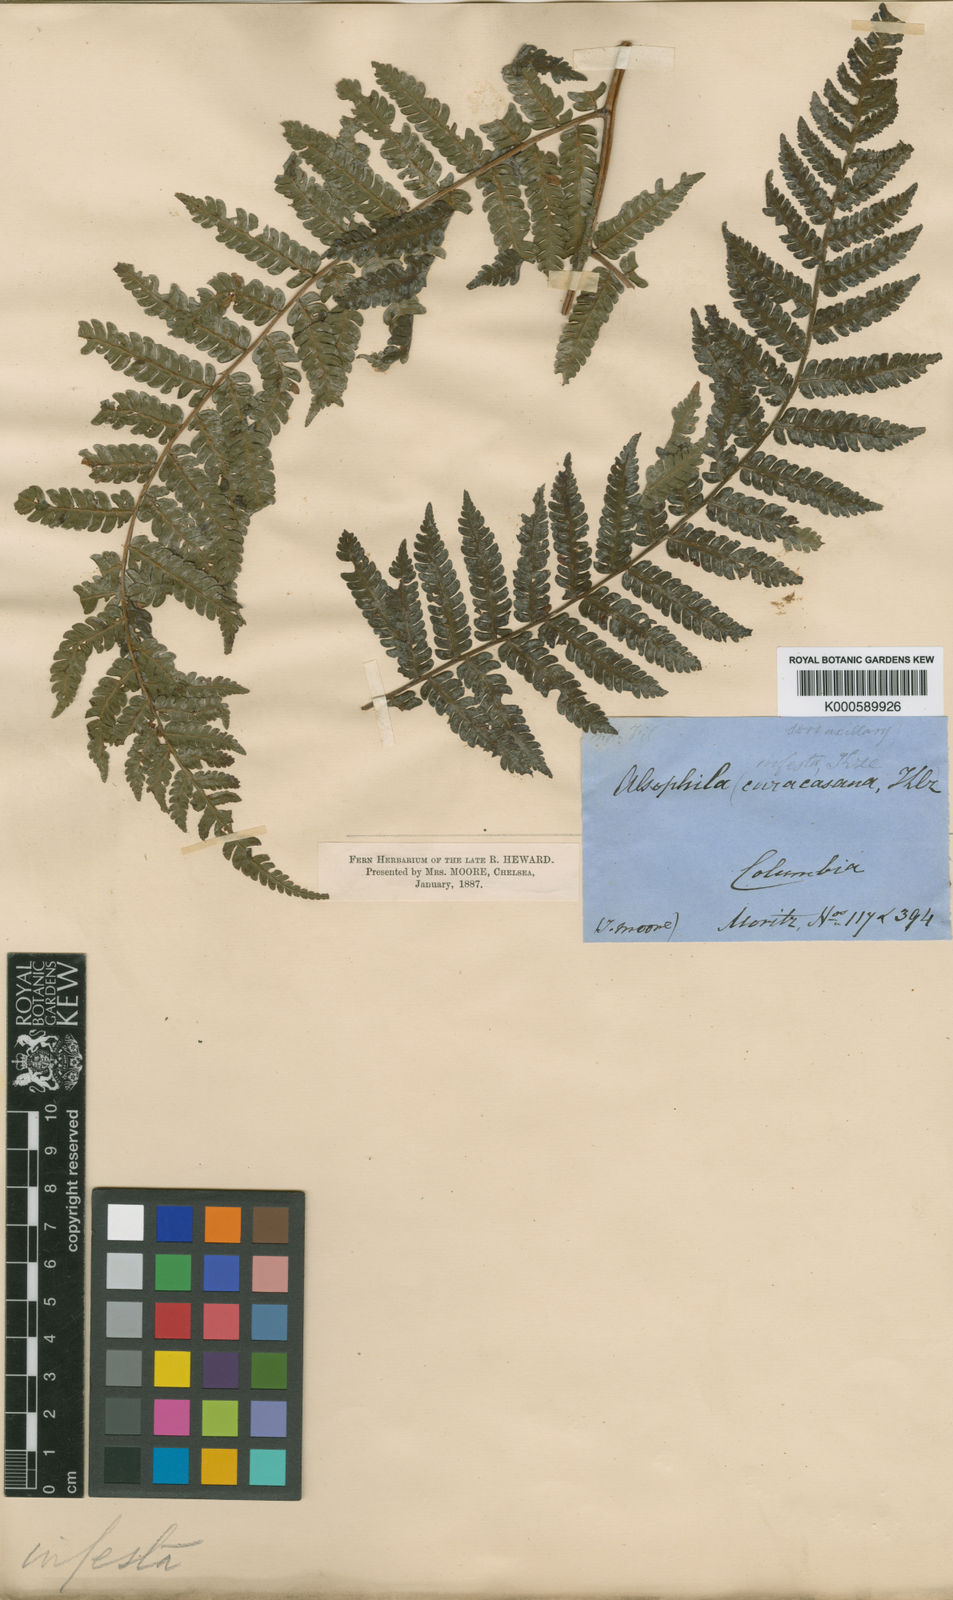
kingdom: Plantae
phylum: Tracheophyta
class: Polypodiopsida
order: Cyatheales
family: Cyatheaceae
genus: Cyathea
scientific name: Cyathea caracasana
